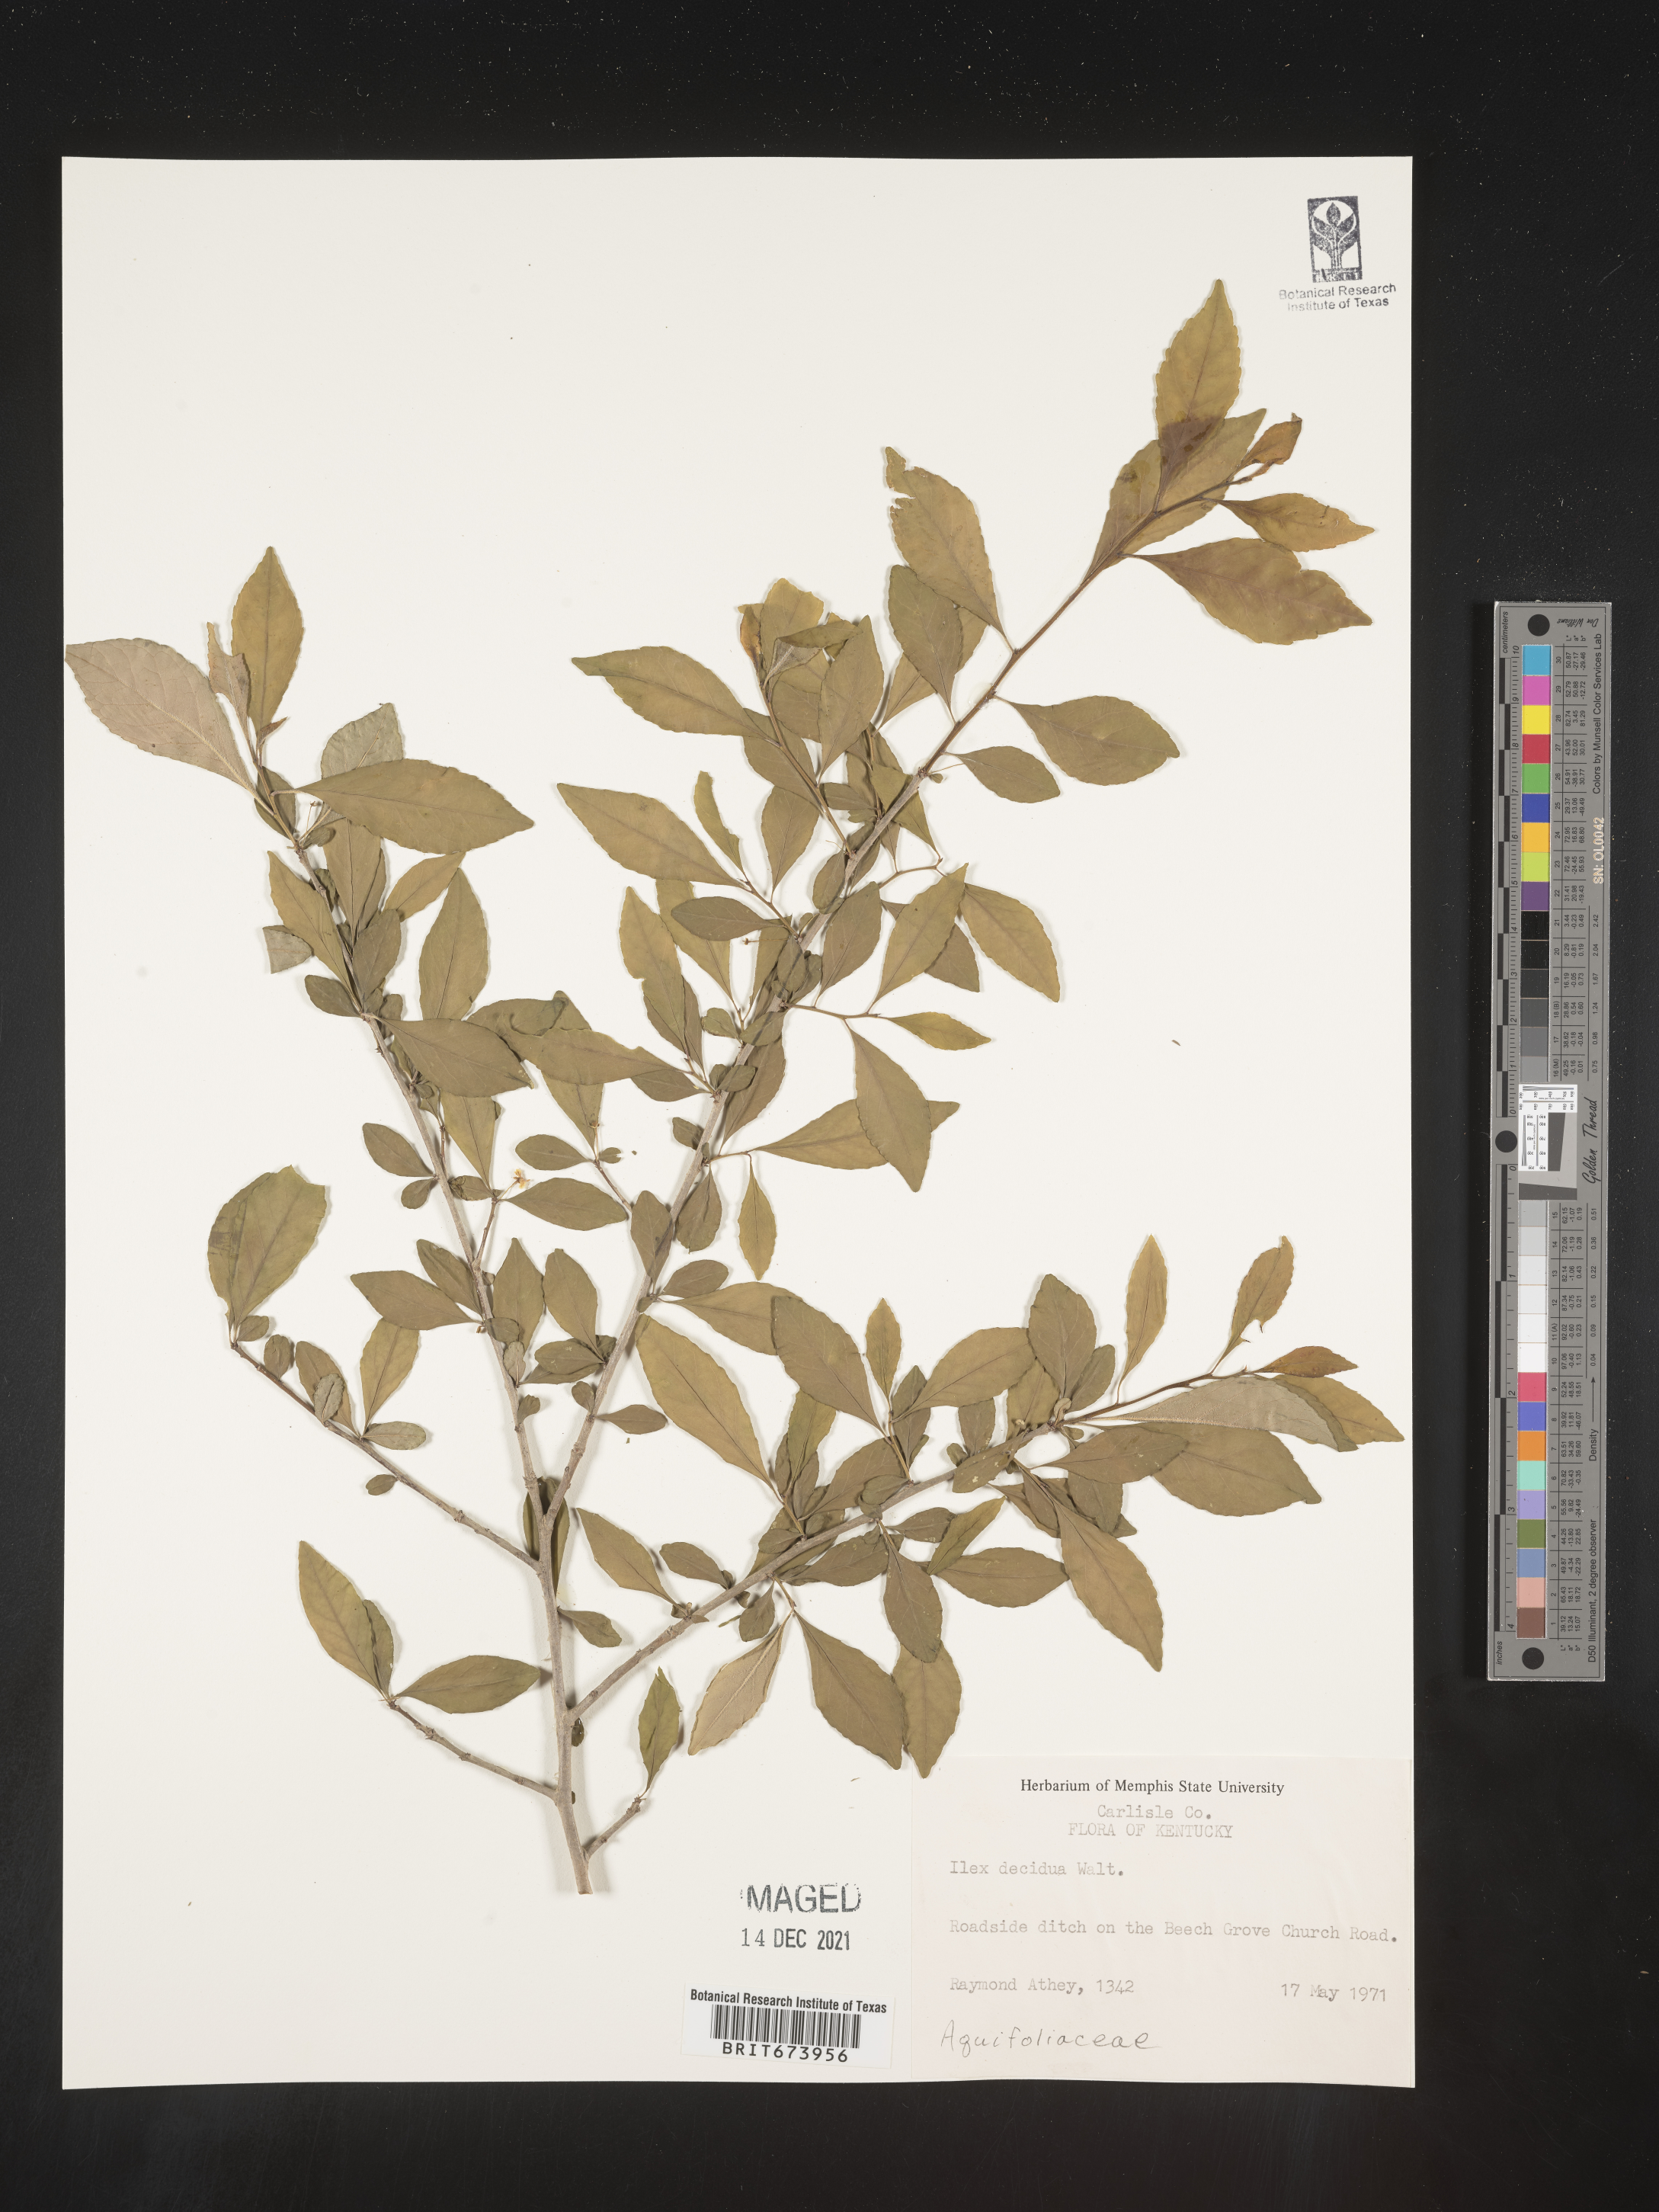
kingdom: Plantae
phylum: Tracheophyta
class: Magnoliopsida
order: Aquifoliales
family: Aquifoliaceae
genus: Ilex
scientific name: Ilex decidua
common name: Possum-haw
